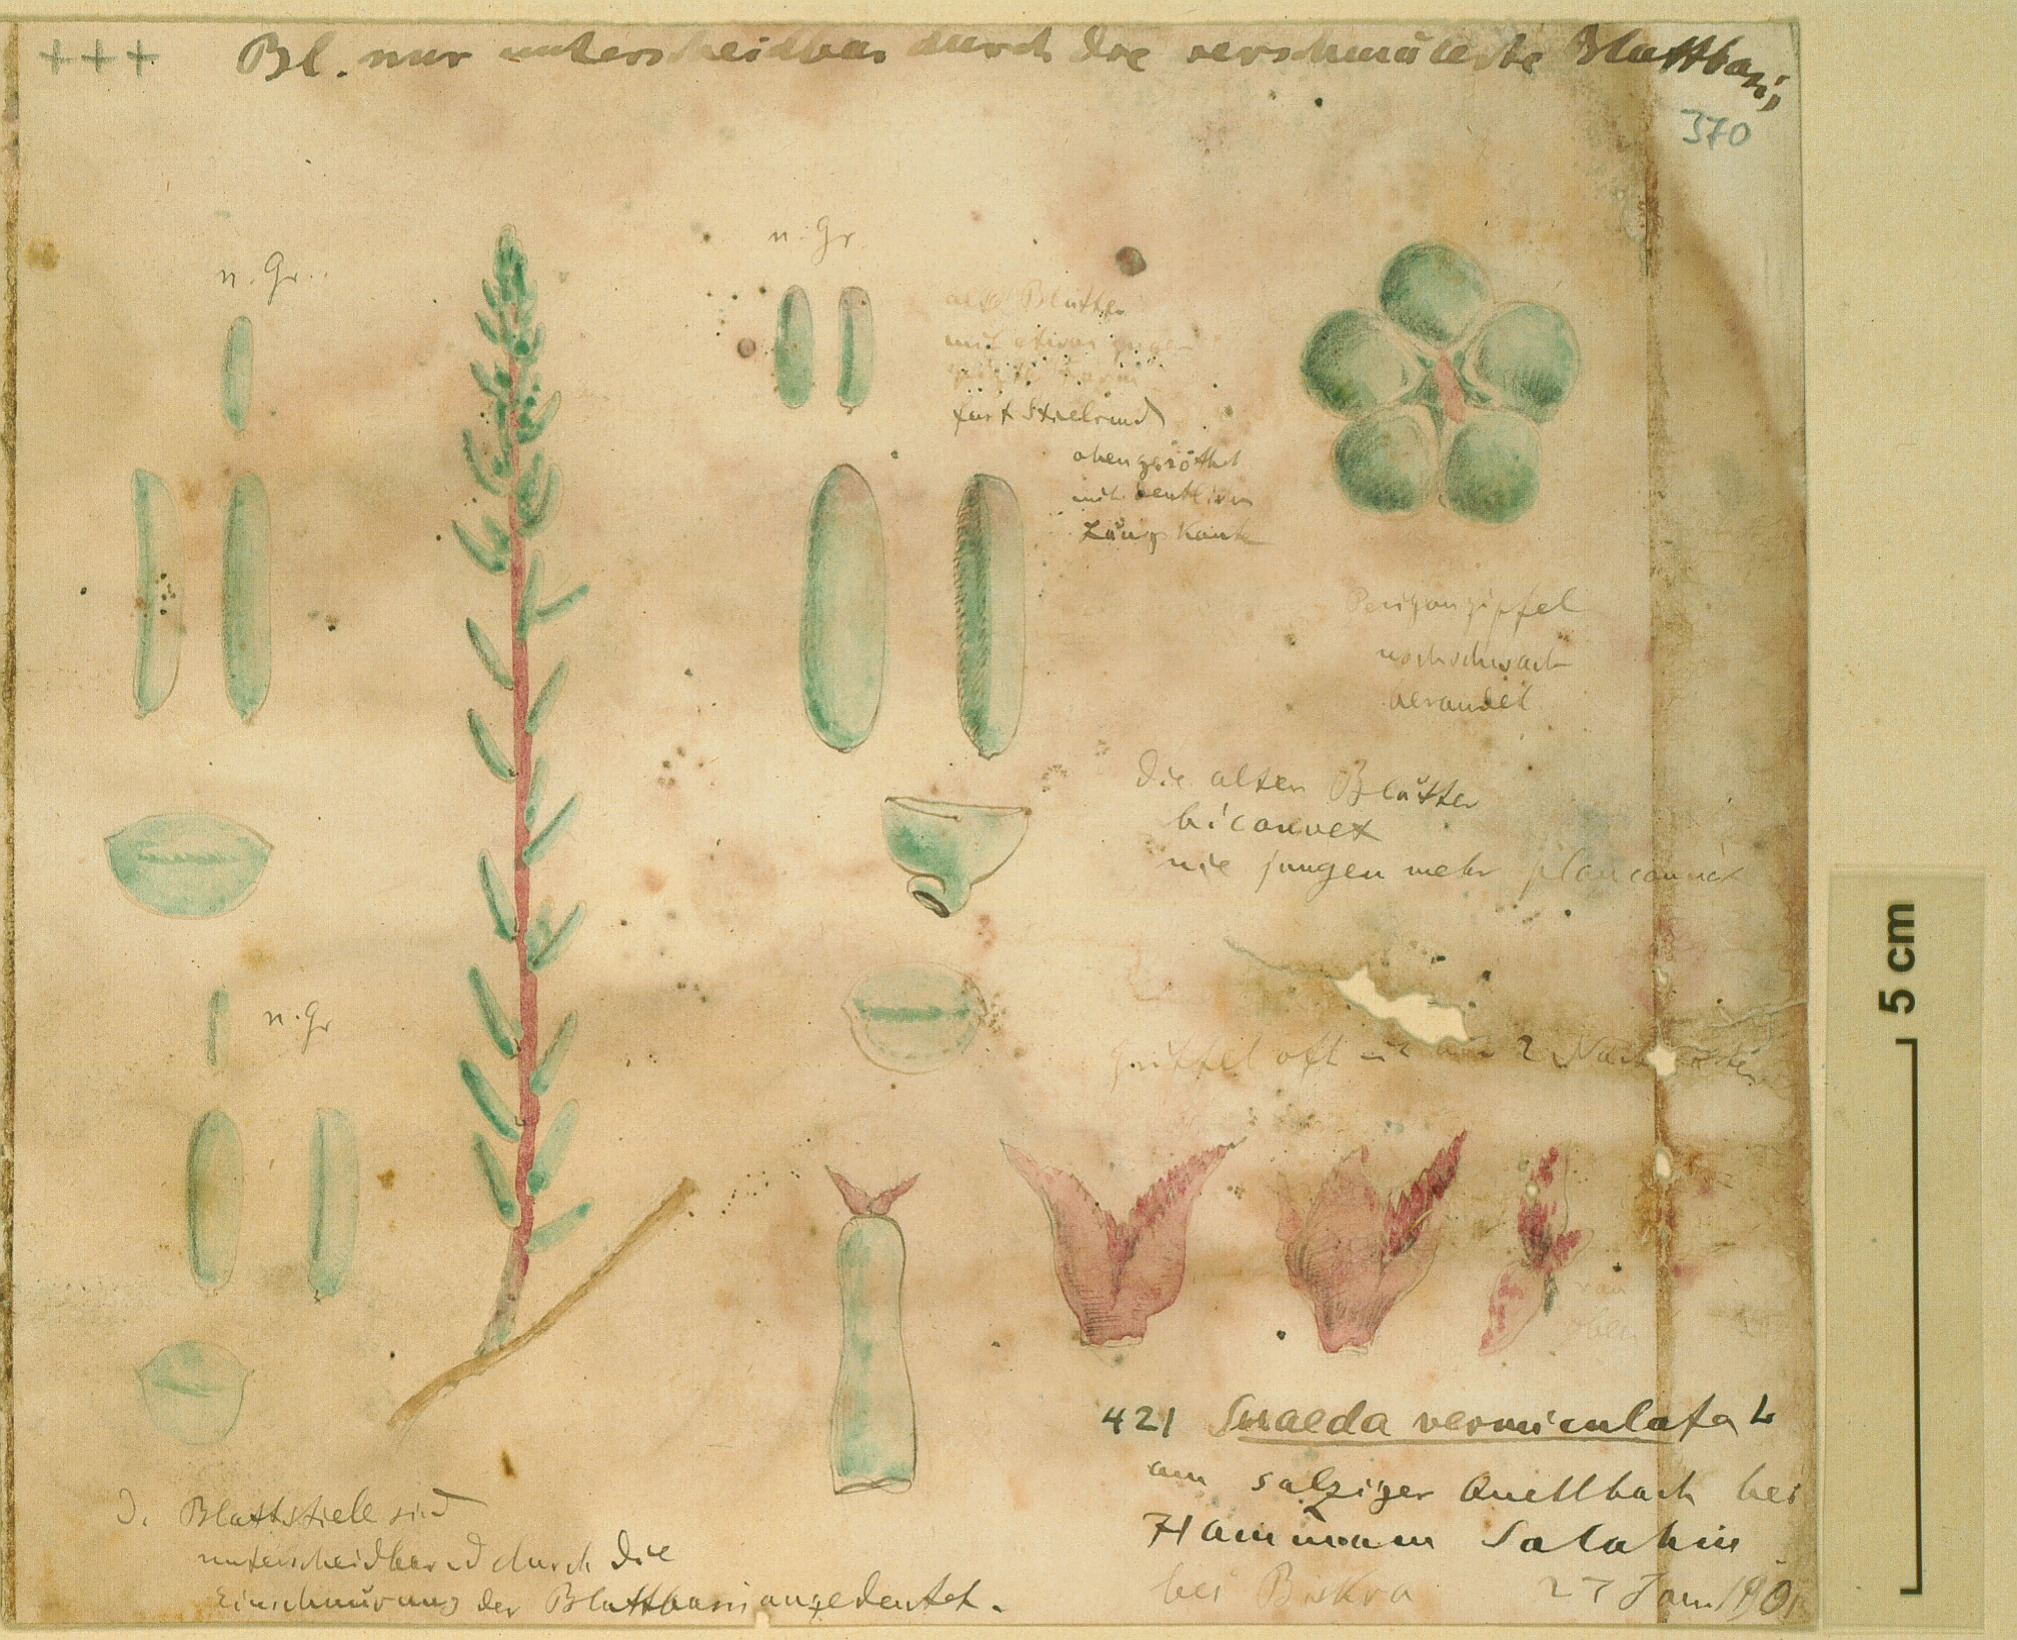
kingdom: Plantae
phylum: Tracheophyta
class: Magnoliopsida
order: Caryophyllales
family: Amaranthaceae
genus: Suaeda
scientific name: Suaeda vermiculata
